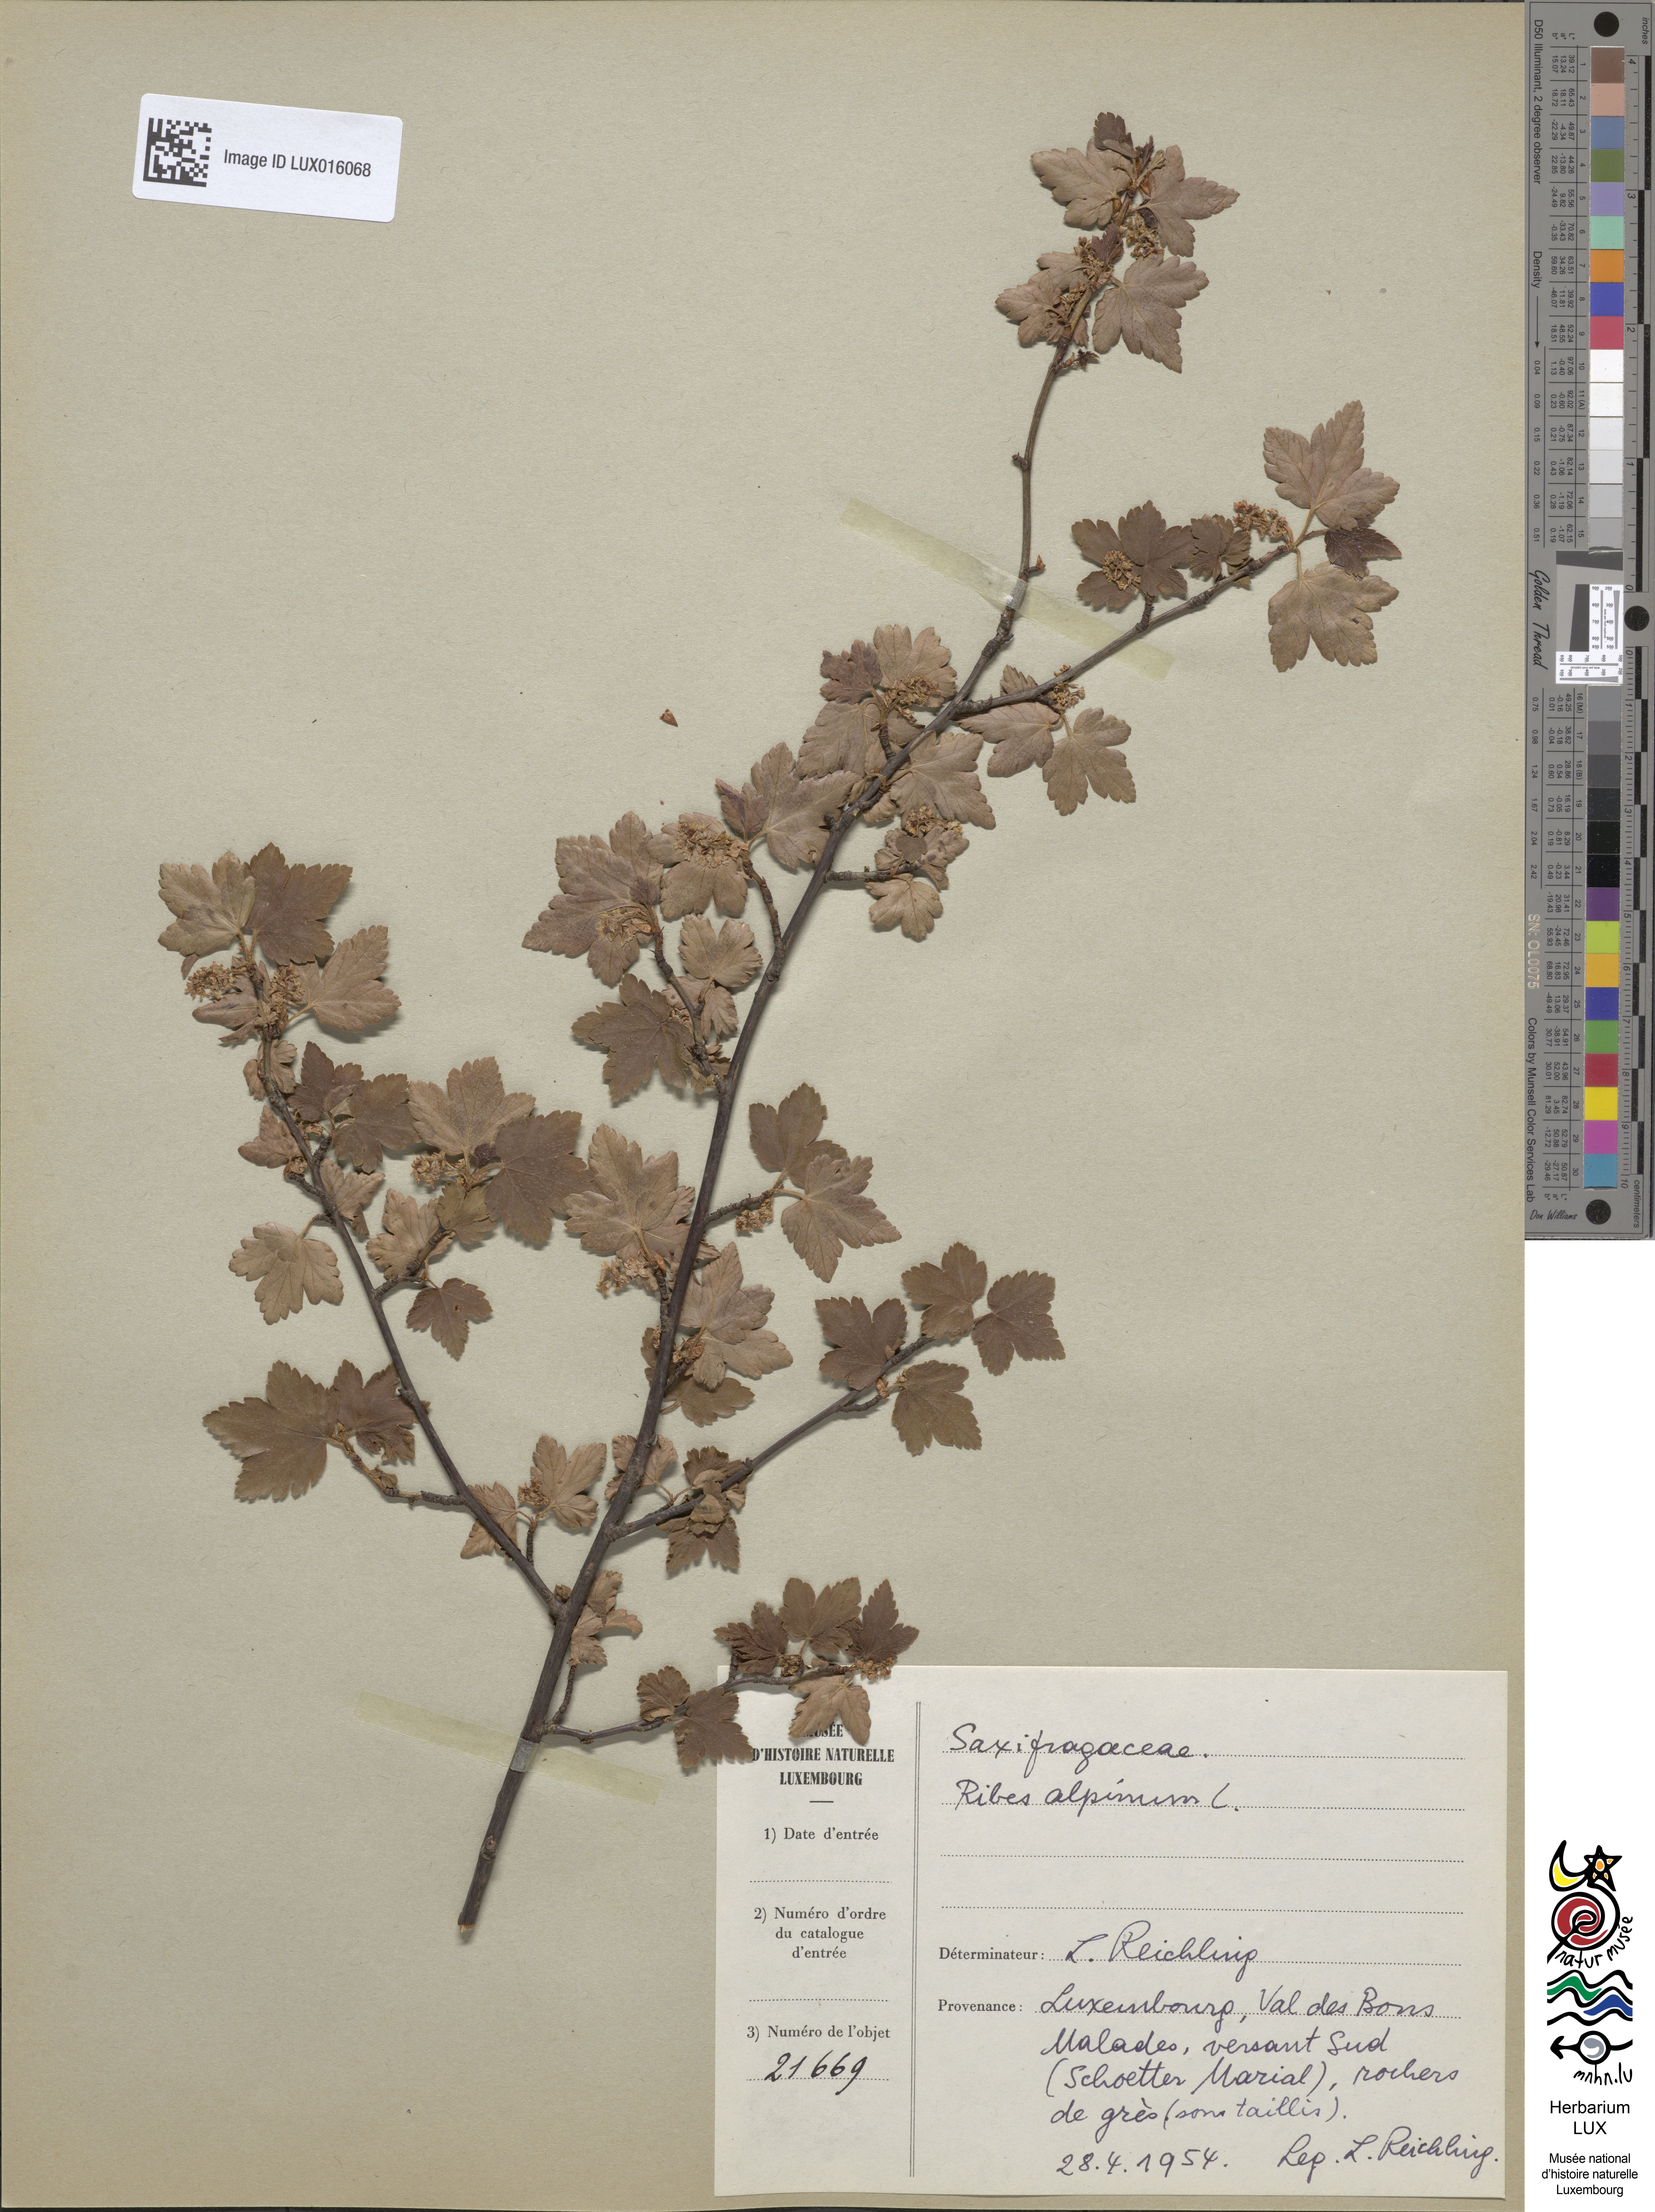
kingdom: Plantae
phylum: Tracheophyta
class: Magnoliopsida
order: Saxifragales
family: Grossulariaceae
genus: Ribes
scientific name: Ribes alpinum
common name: Alpine currant
